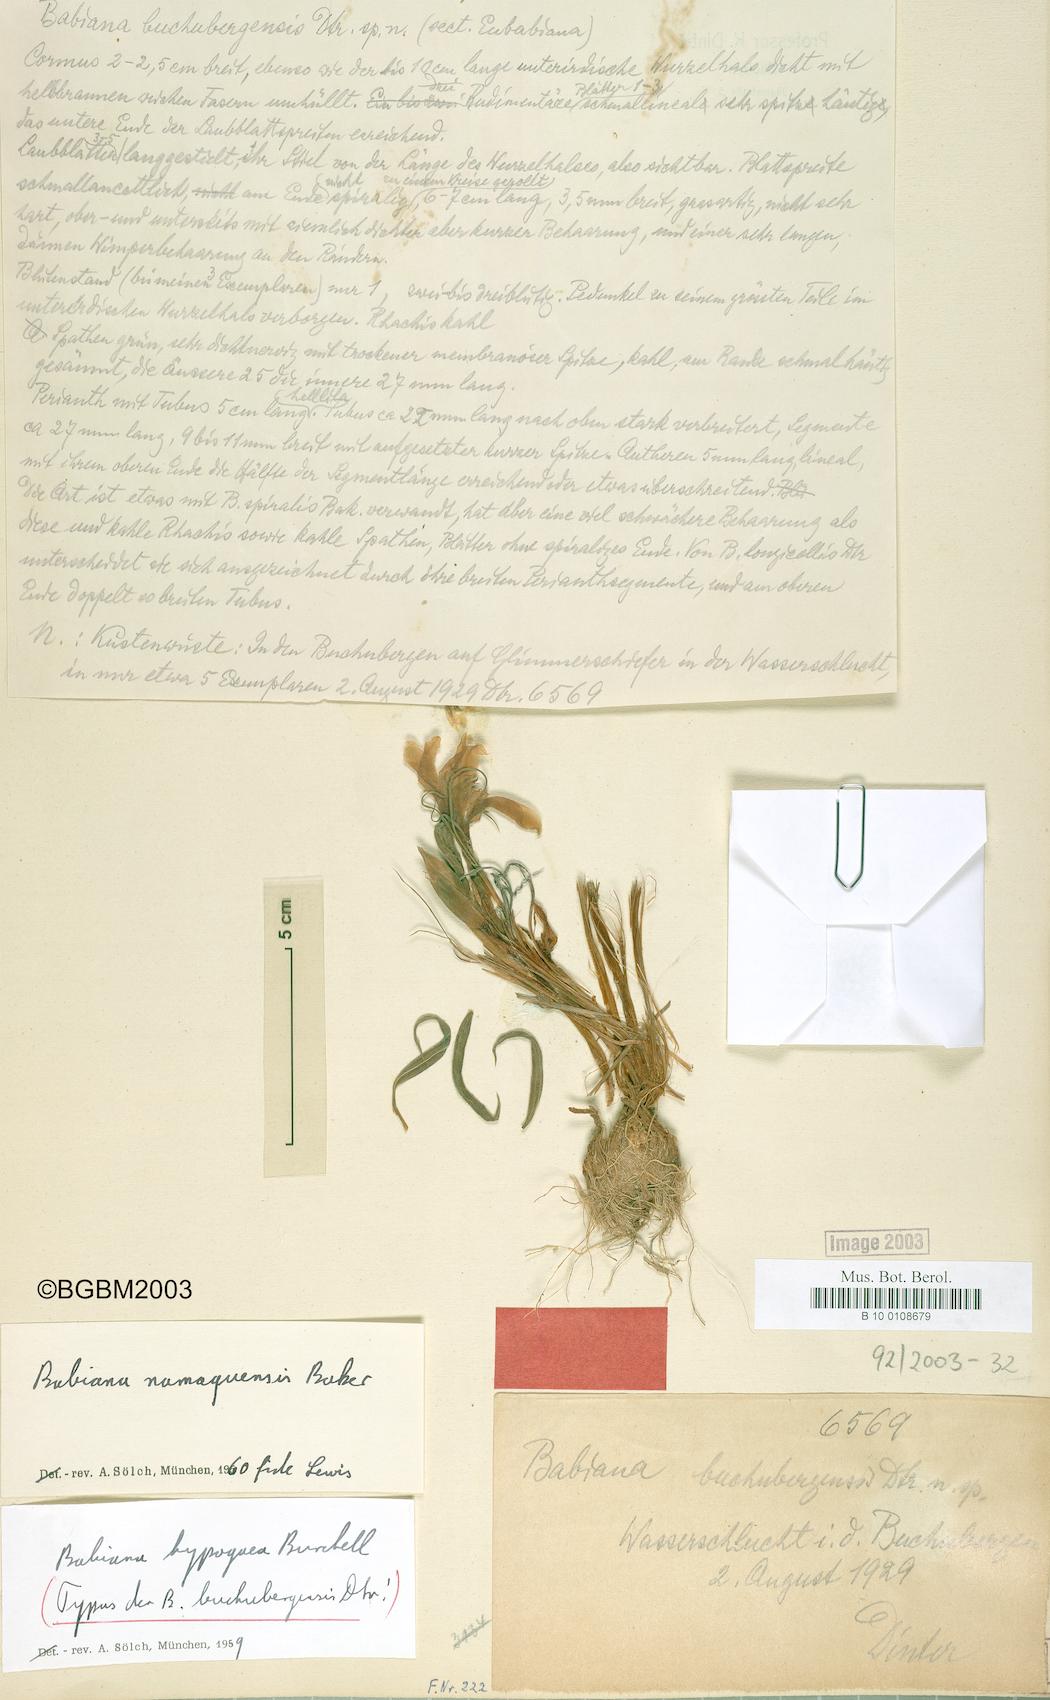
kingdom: Plantae
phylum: Tracheophyta
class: Liliopsida
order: Asparagales
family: Iridaceae
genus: Babiana
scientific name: Babiana namaquensis
